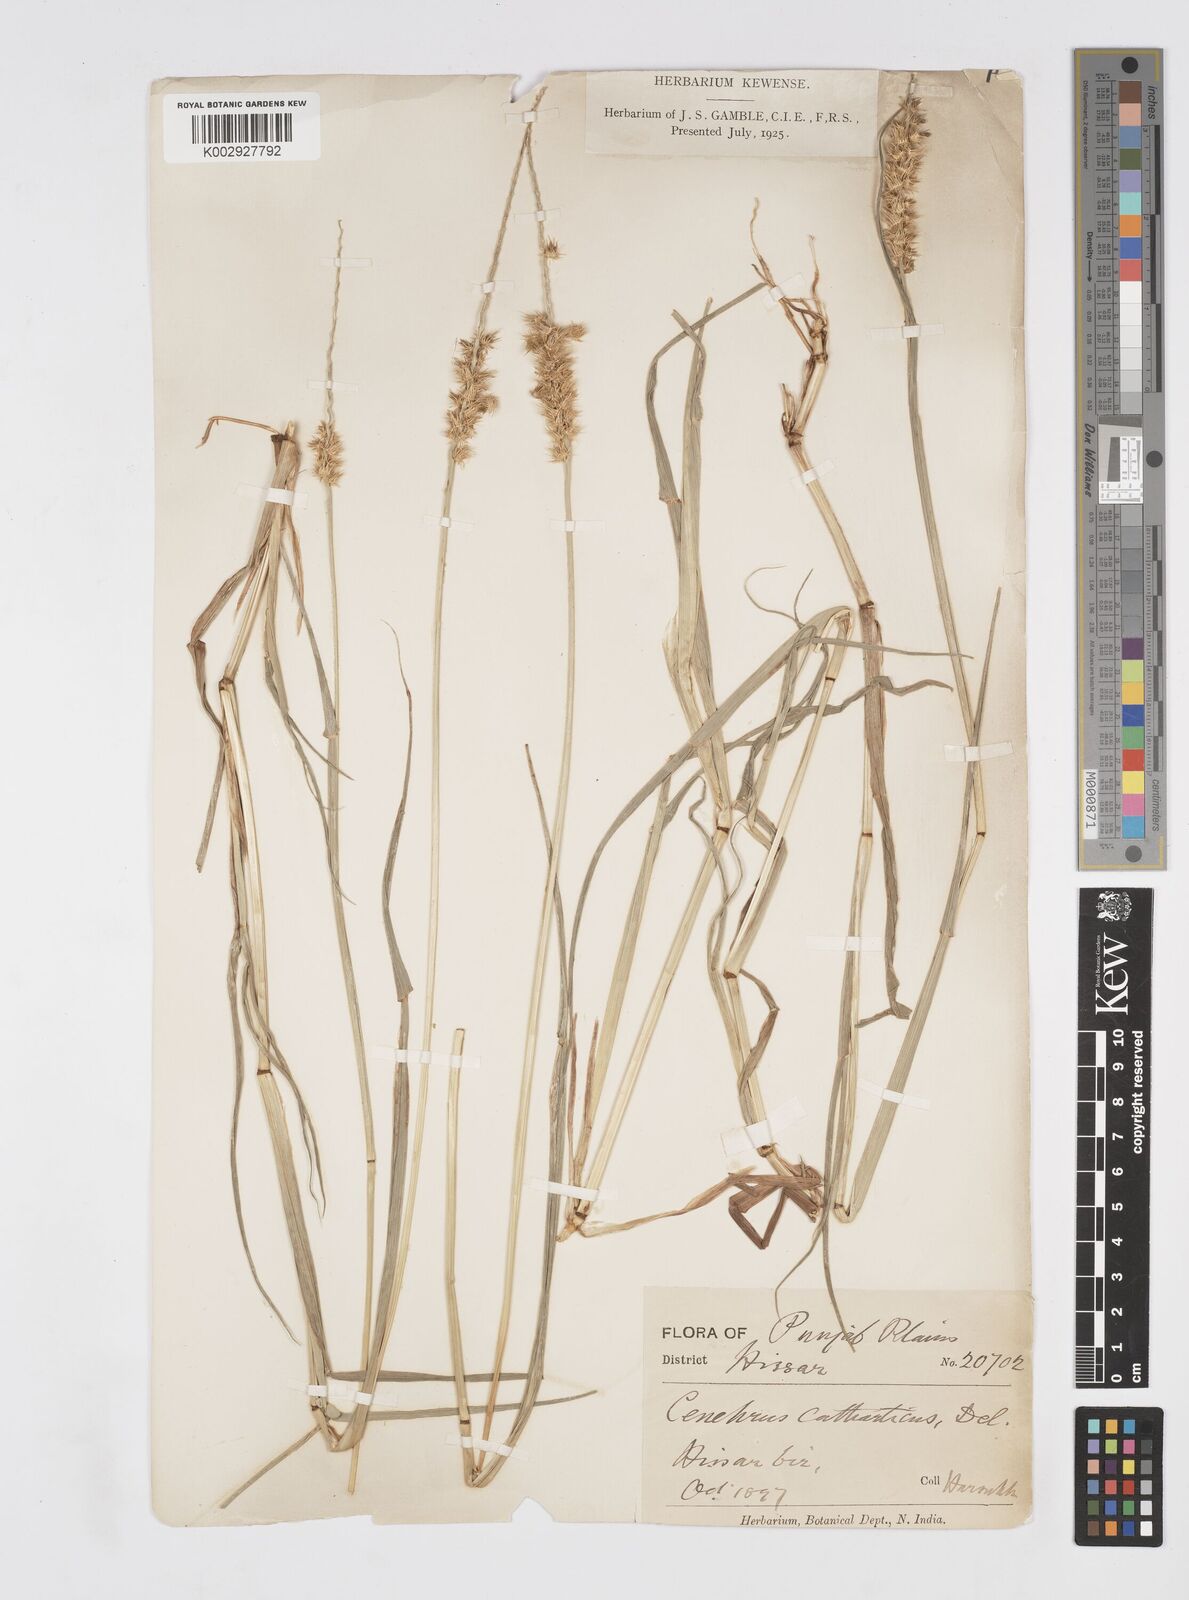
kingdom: Plantae
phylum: Tracheophyta
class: Liliopsida
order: Poales
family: Poaceae
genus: Cenchrus
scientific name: Cenchrus biflorus
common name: Indian sandbur
